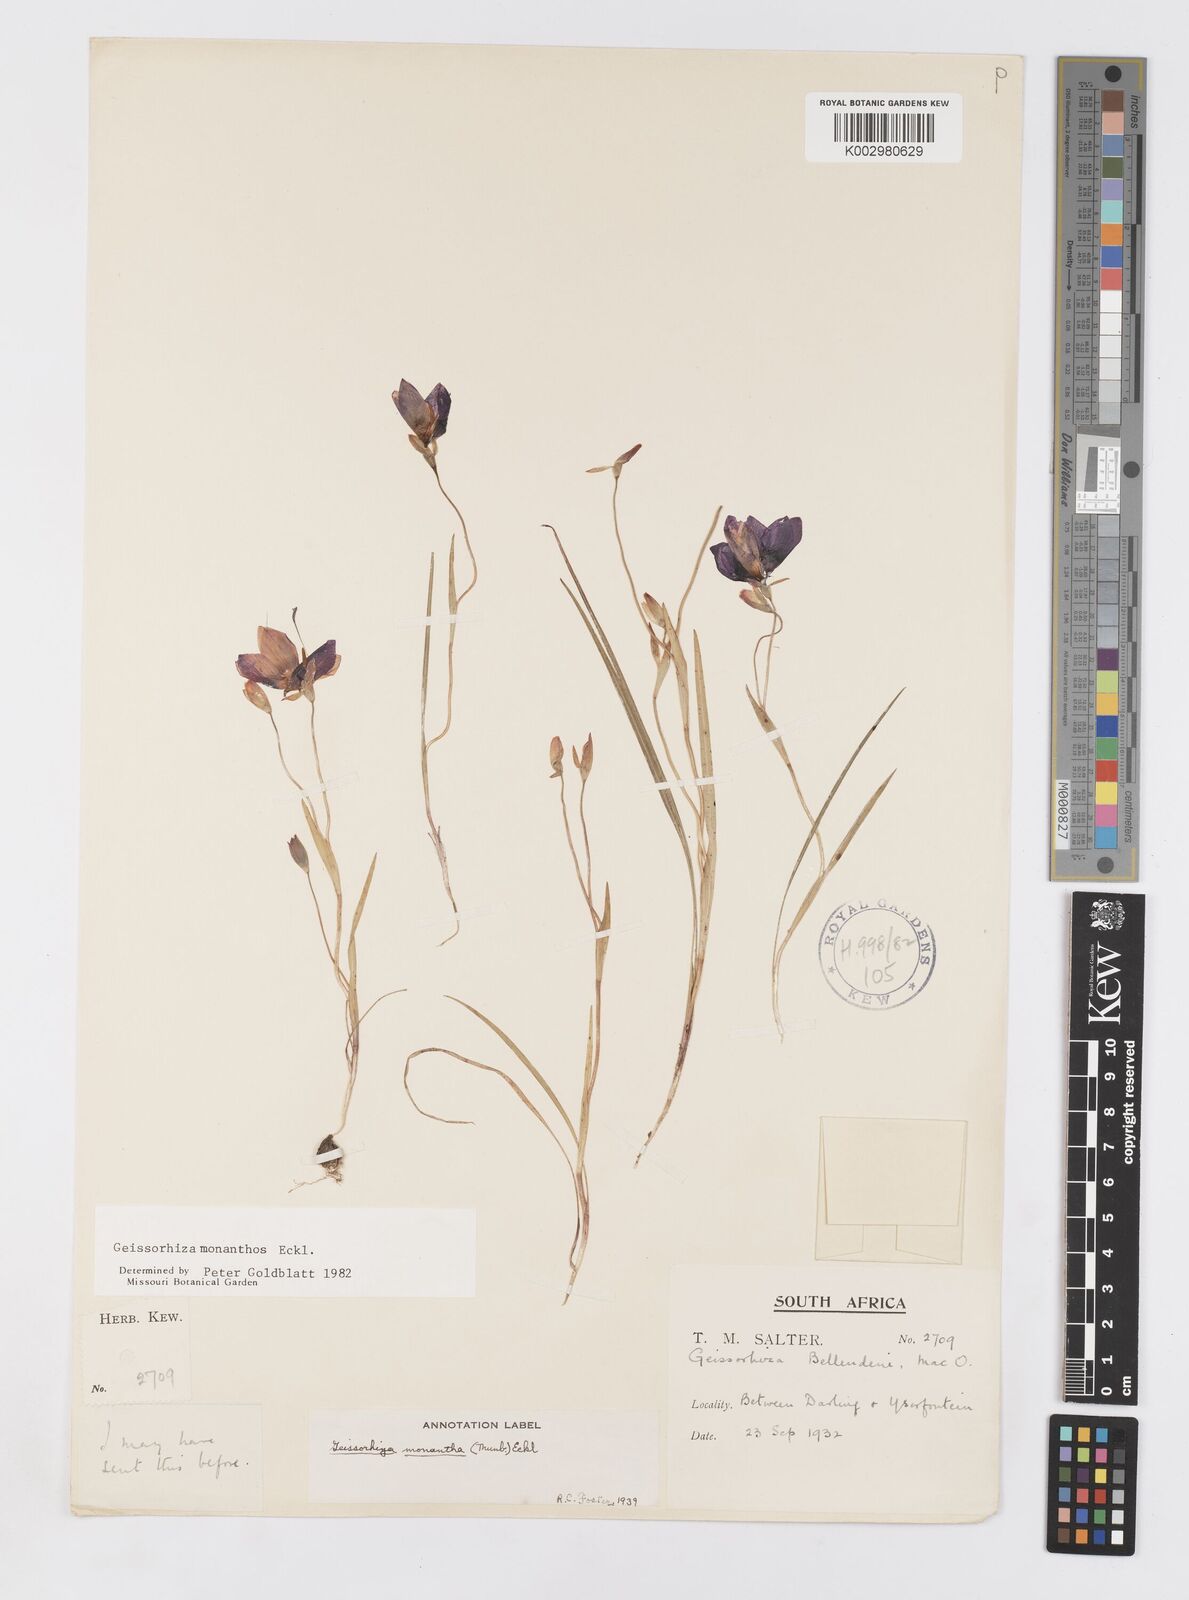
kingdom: Plantae
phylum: Tracheophyta
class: Liliopsida
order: Asparagales
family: Iridaceae
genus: Geissorhiza
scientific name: Geissorhiza monanthos
